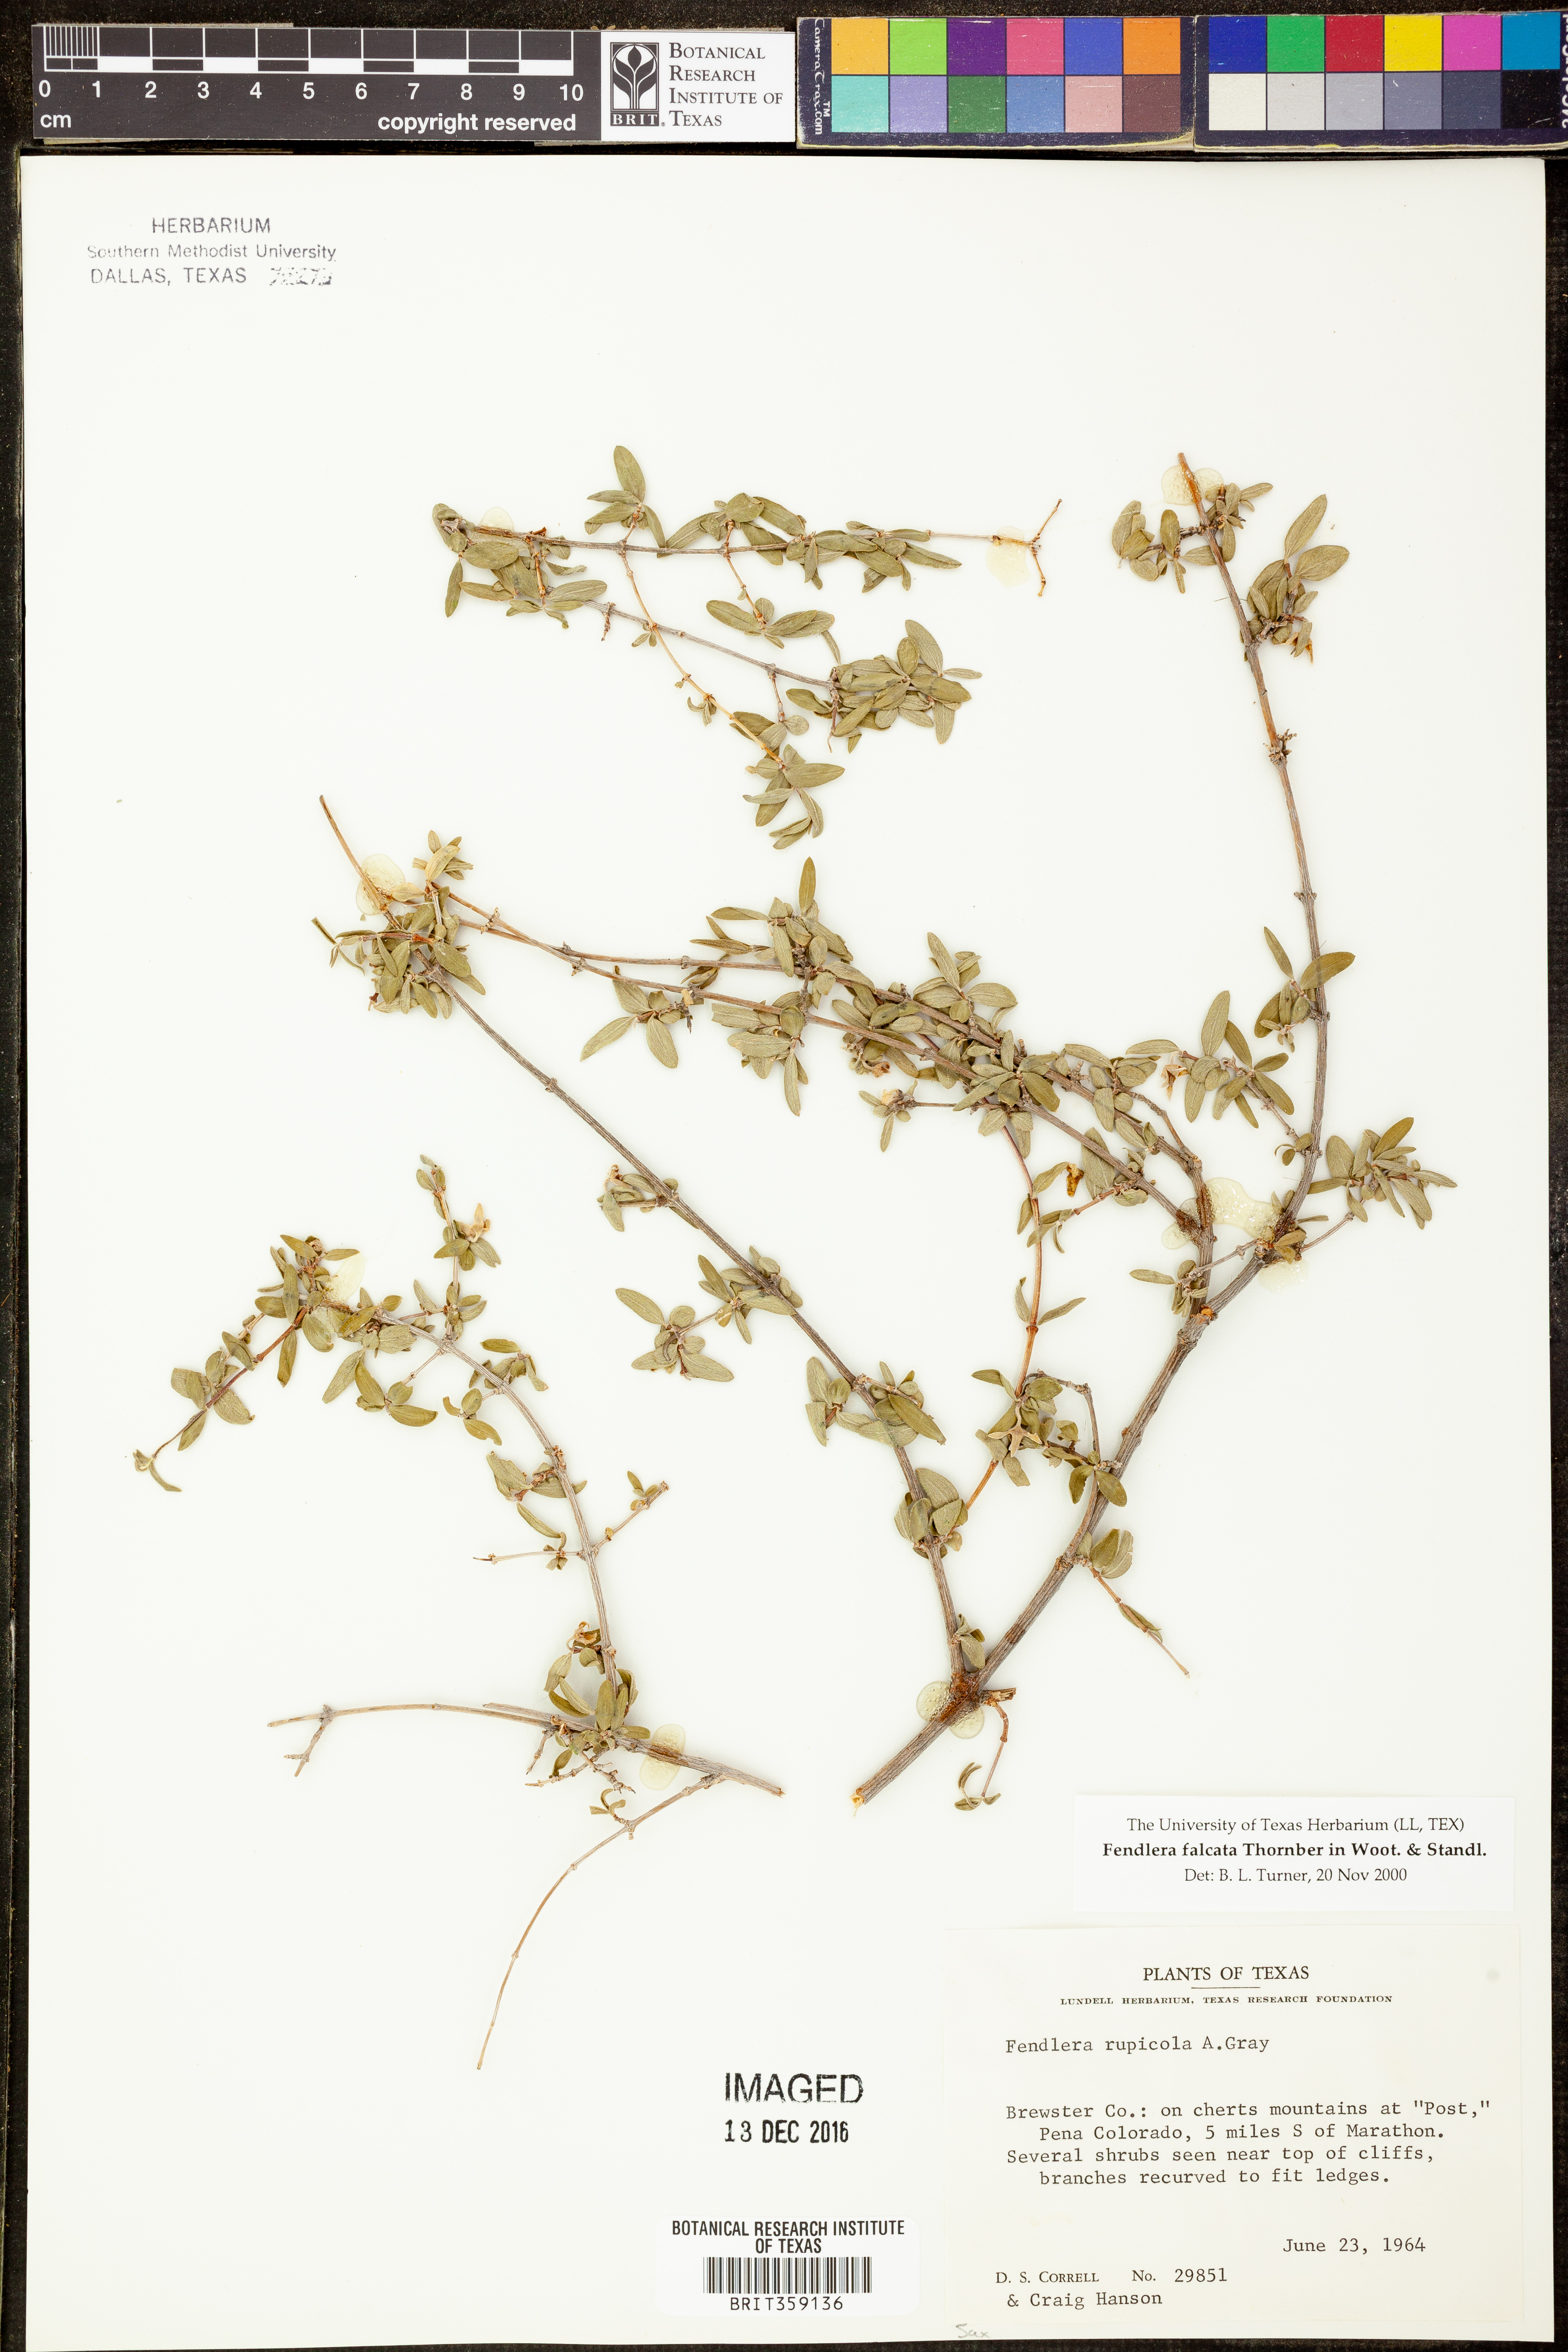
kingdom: Plantae
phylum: Tracheophyta
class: Magnoliopsida
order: Cornales
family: Hydrangeaceae
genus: Fendlera
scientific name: Fendlera rupicola
